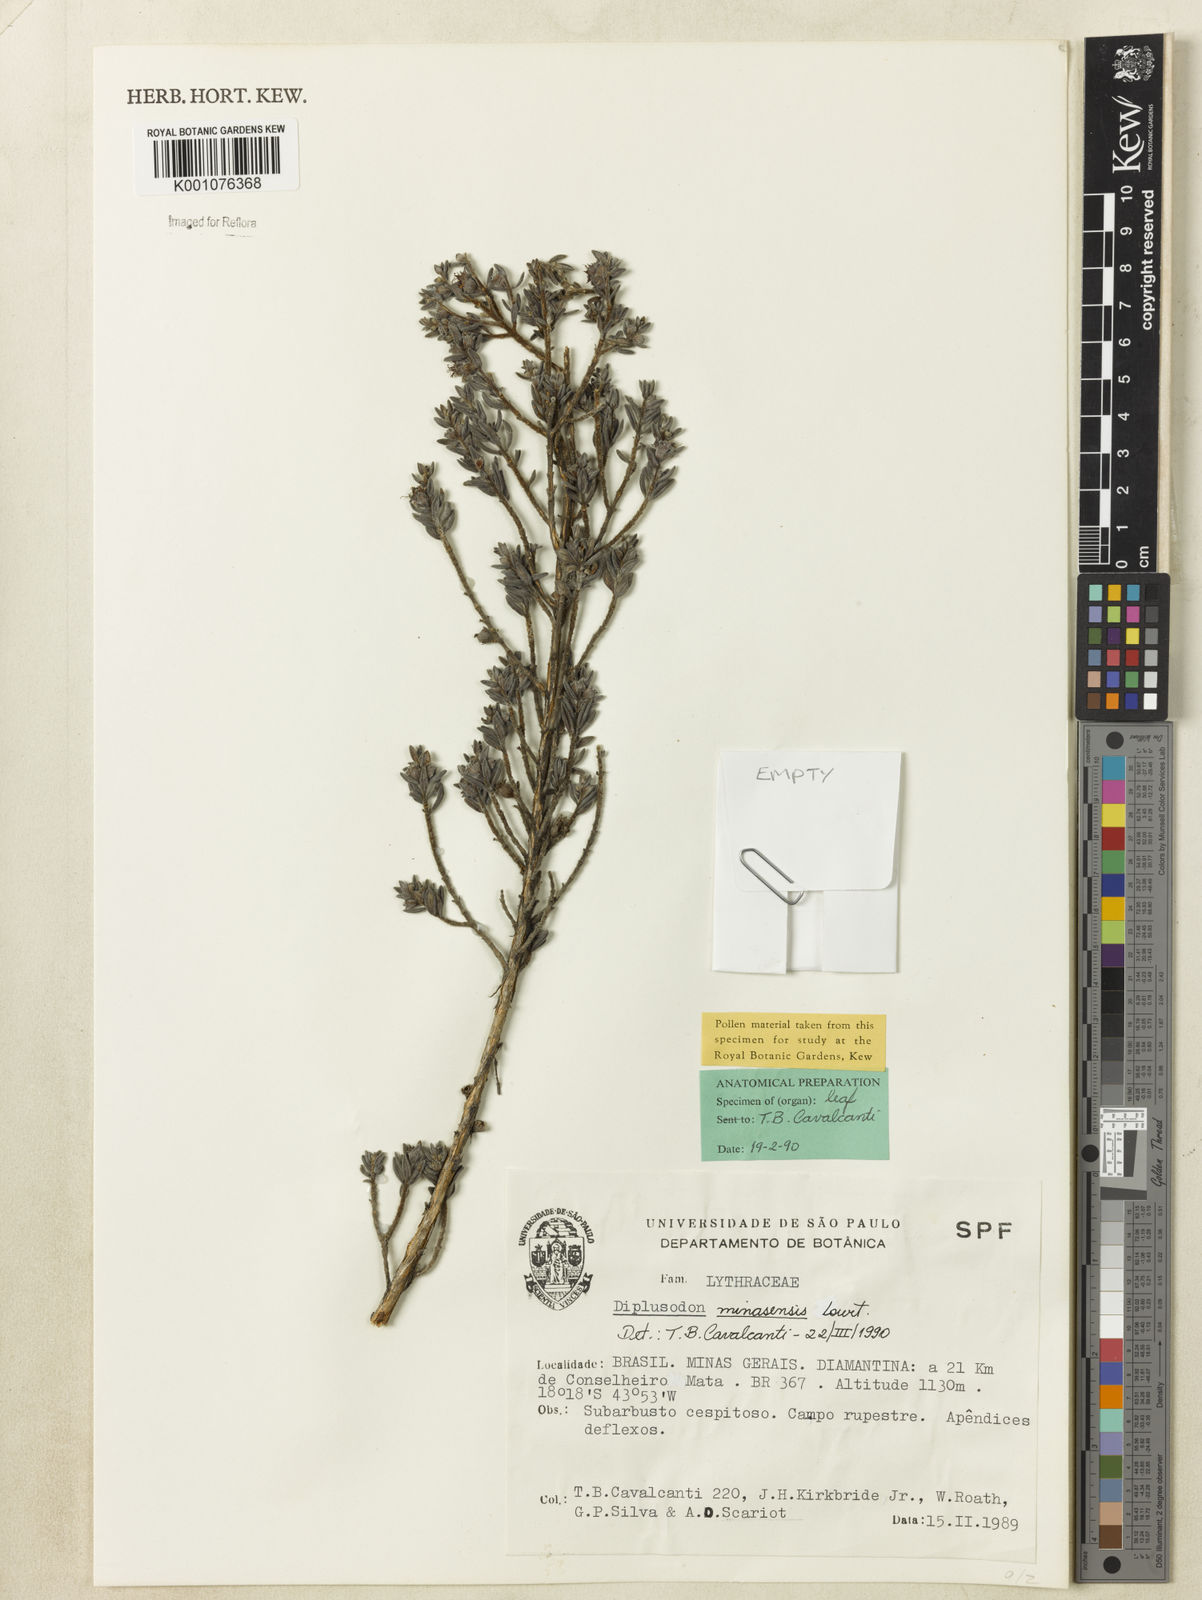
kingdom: Plantae
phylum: Tracheophyta
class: Magnoliopsida
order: Myrtales
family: Lythraceae
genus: Diplusodon
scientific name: Diplusodon minasensis
